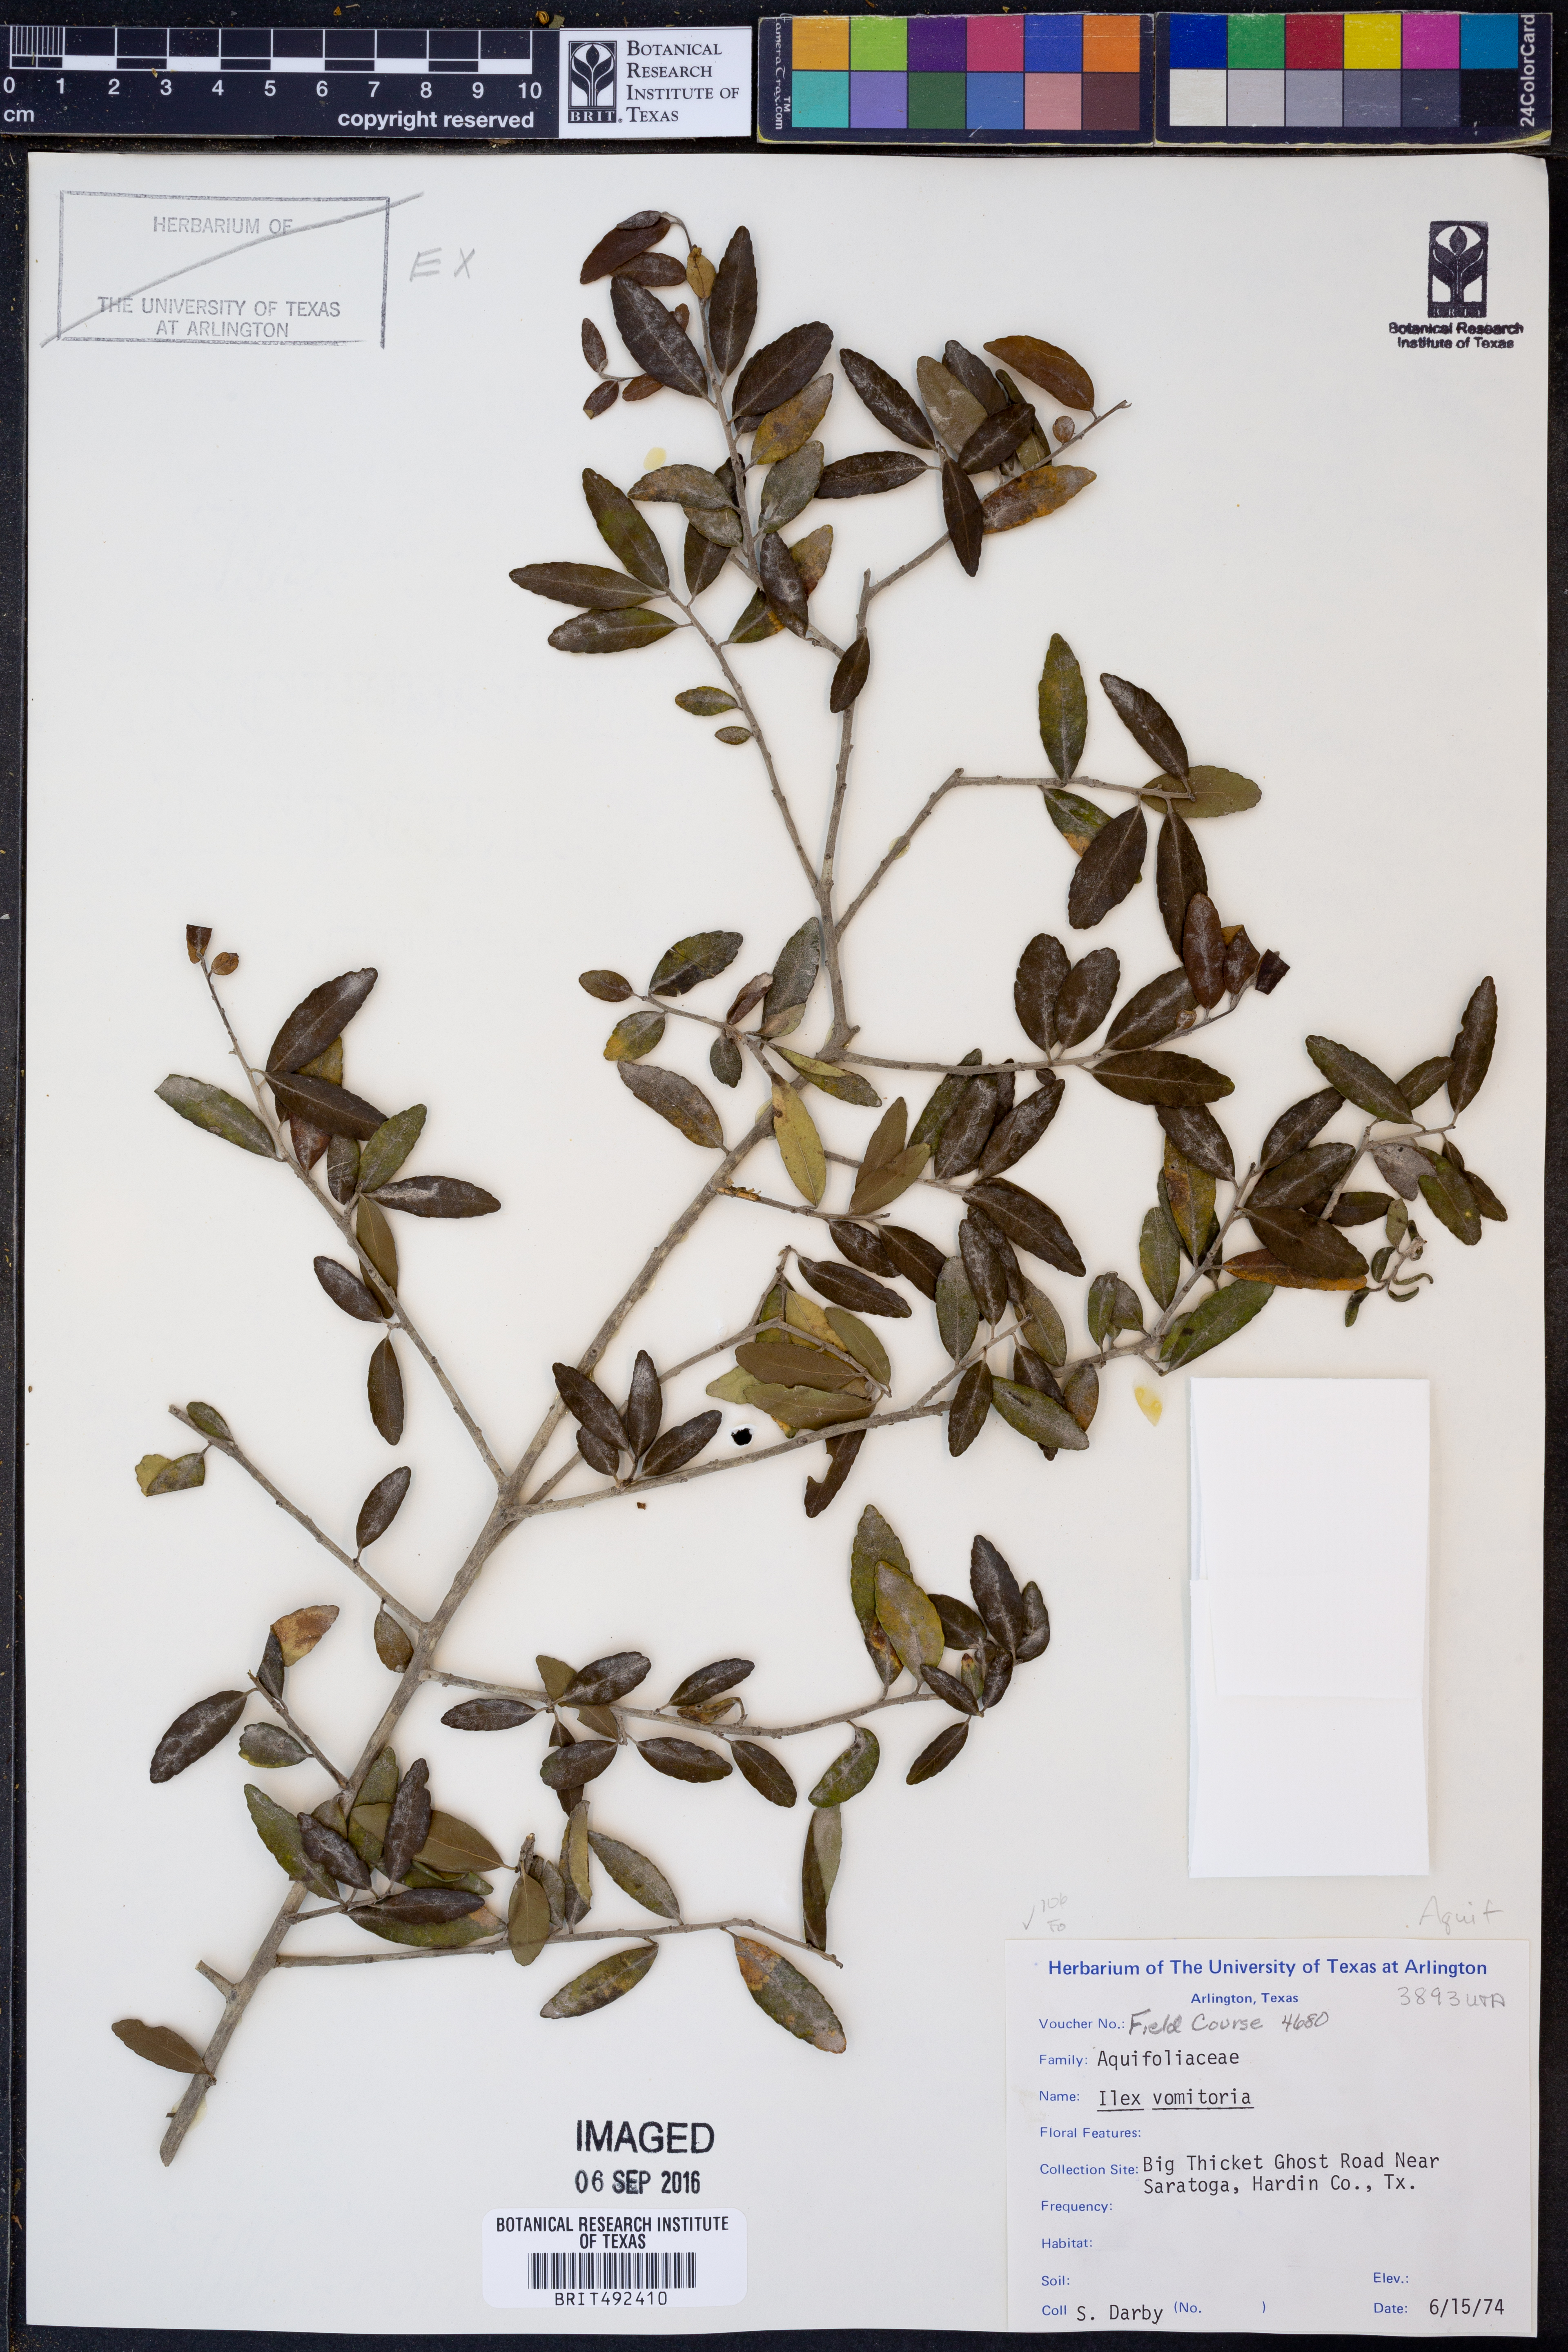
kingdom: Plantae
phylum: Tracheophyta
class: Magnoliopsida
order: Aquifoliales
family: Aquifoliaceae
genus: Ilex
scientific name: Ilex vomitoria
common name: Yaupon holly
